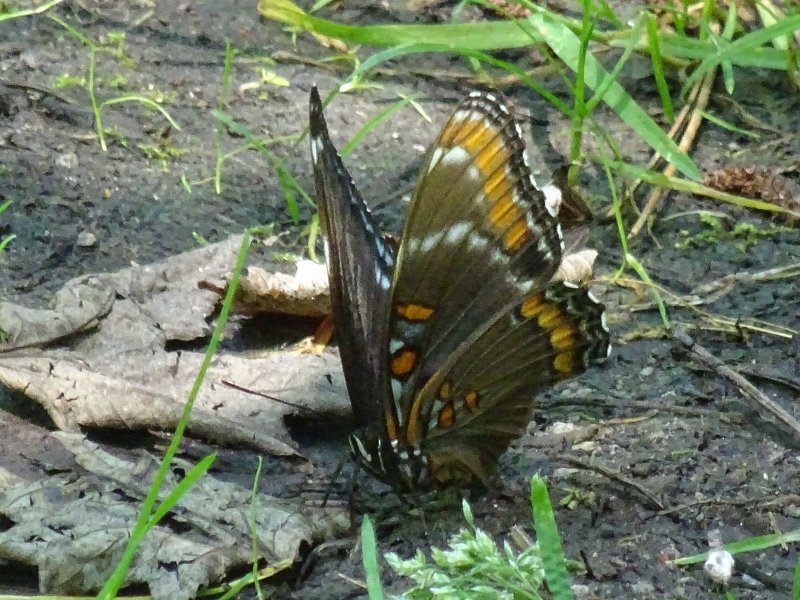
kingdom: Animalia
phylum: Arthropoda
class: Insecta
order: Lepidoptera
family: Nymphalidae
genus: Limenitis
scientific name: Limenitis
